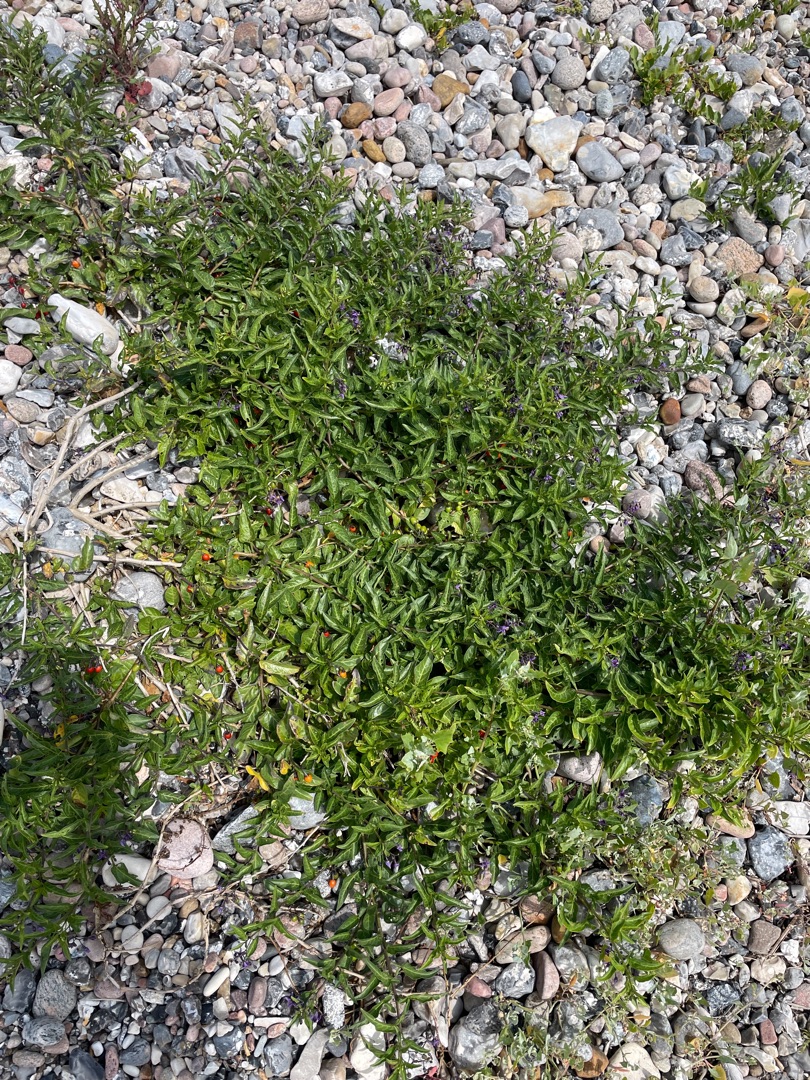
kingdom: Plantae
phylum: Tracheophyta
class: Magnoliopsida
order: Solanales
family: Solanaceae
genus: Solanum
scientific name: Solanum dulcamara
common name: Bittersød natskygge
